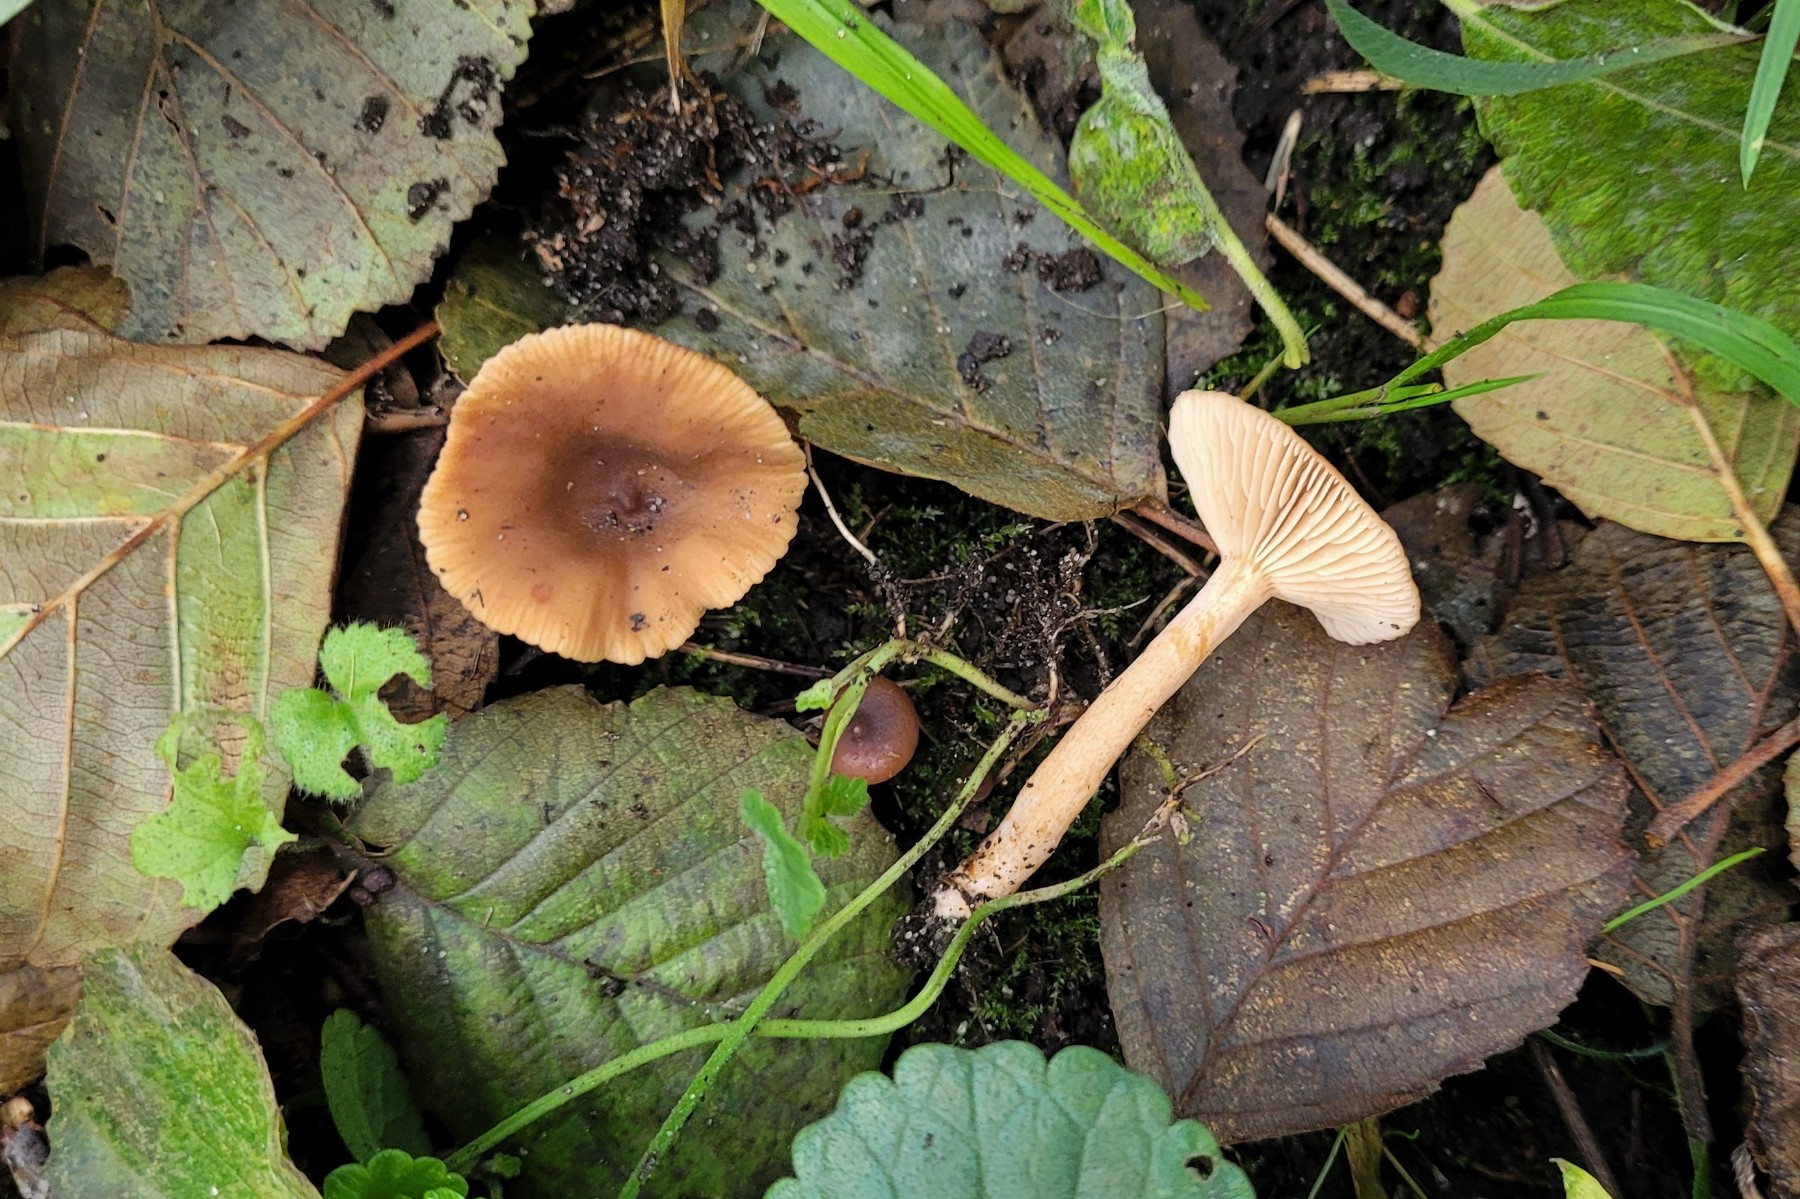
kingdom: Fungi
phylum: Basidiomycota
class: Agaricomycetes
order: Russulales
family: Russulaceae
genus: Lactarius
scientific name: Lactarius obscuratus
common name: elle-mælkehat
